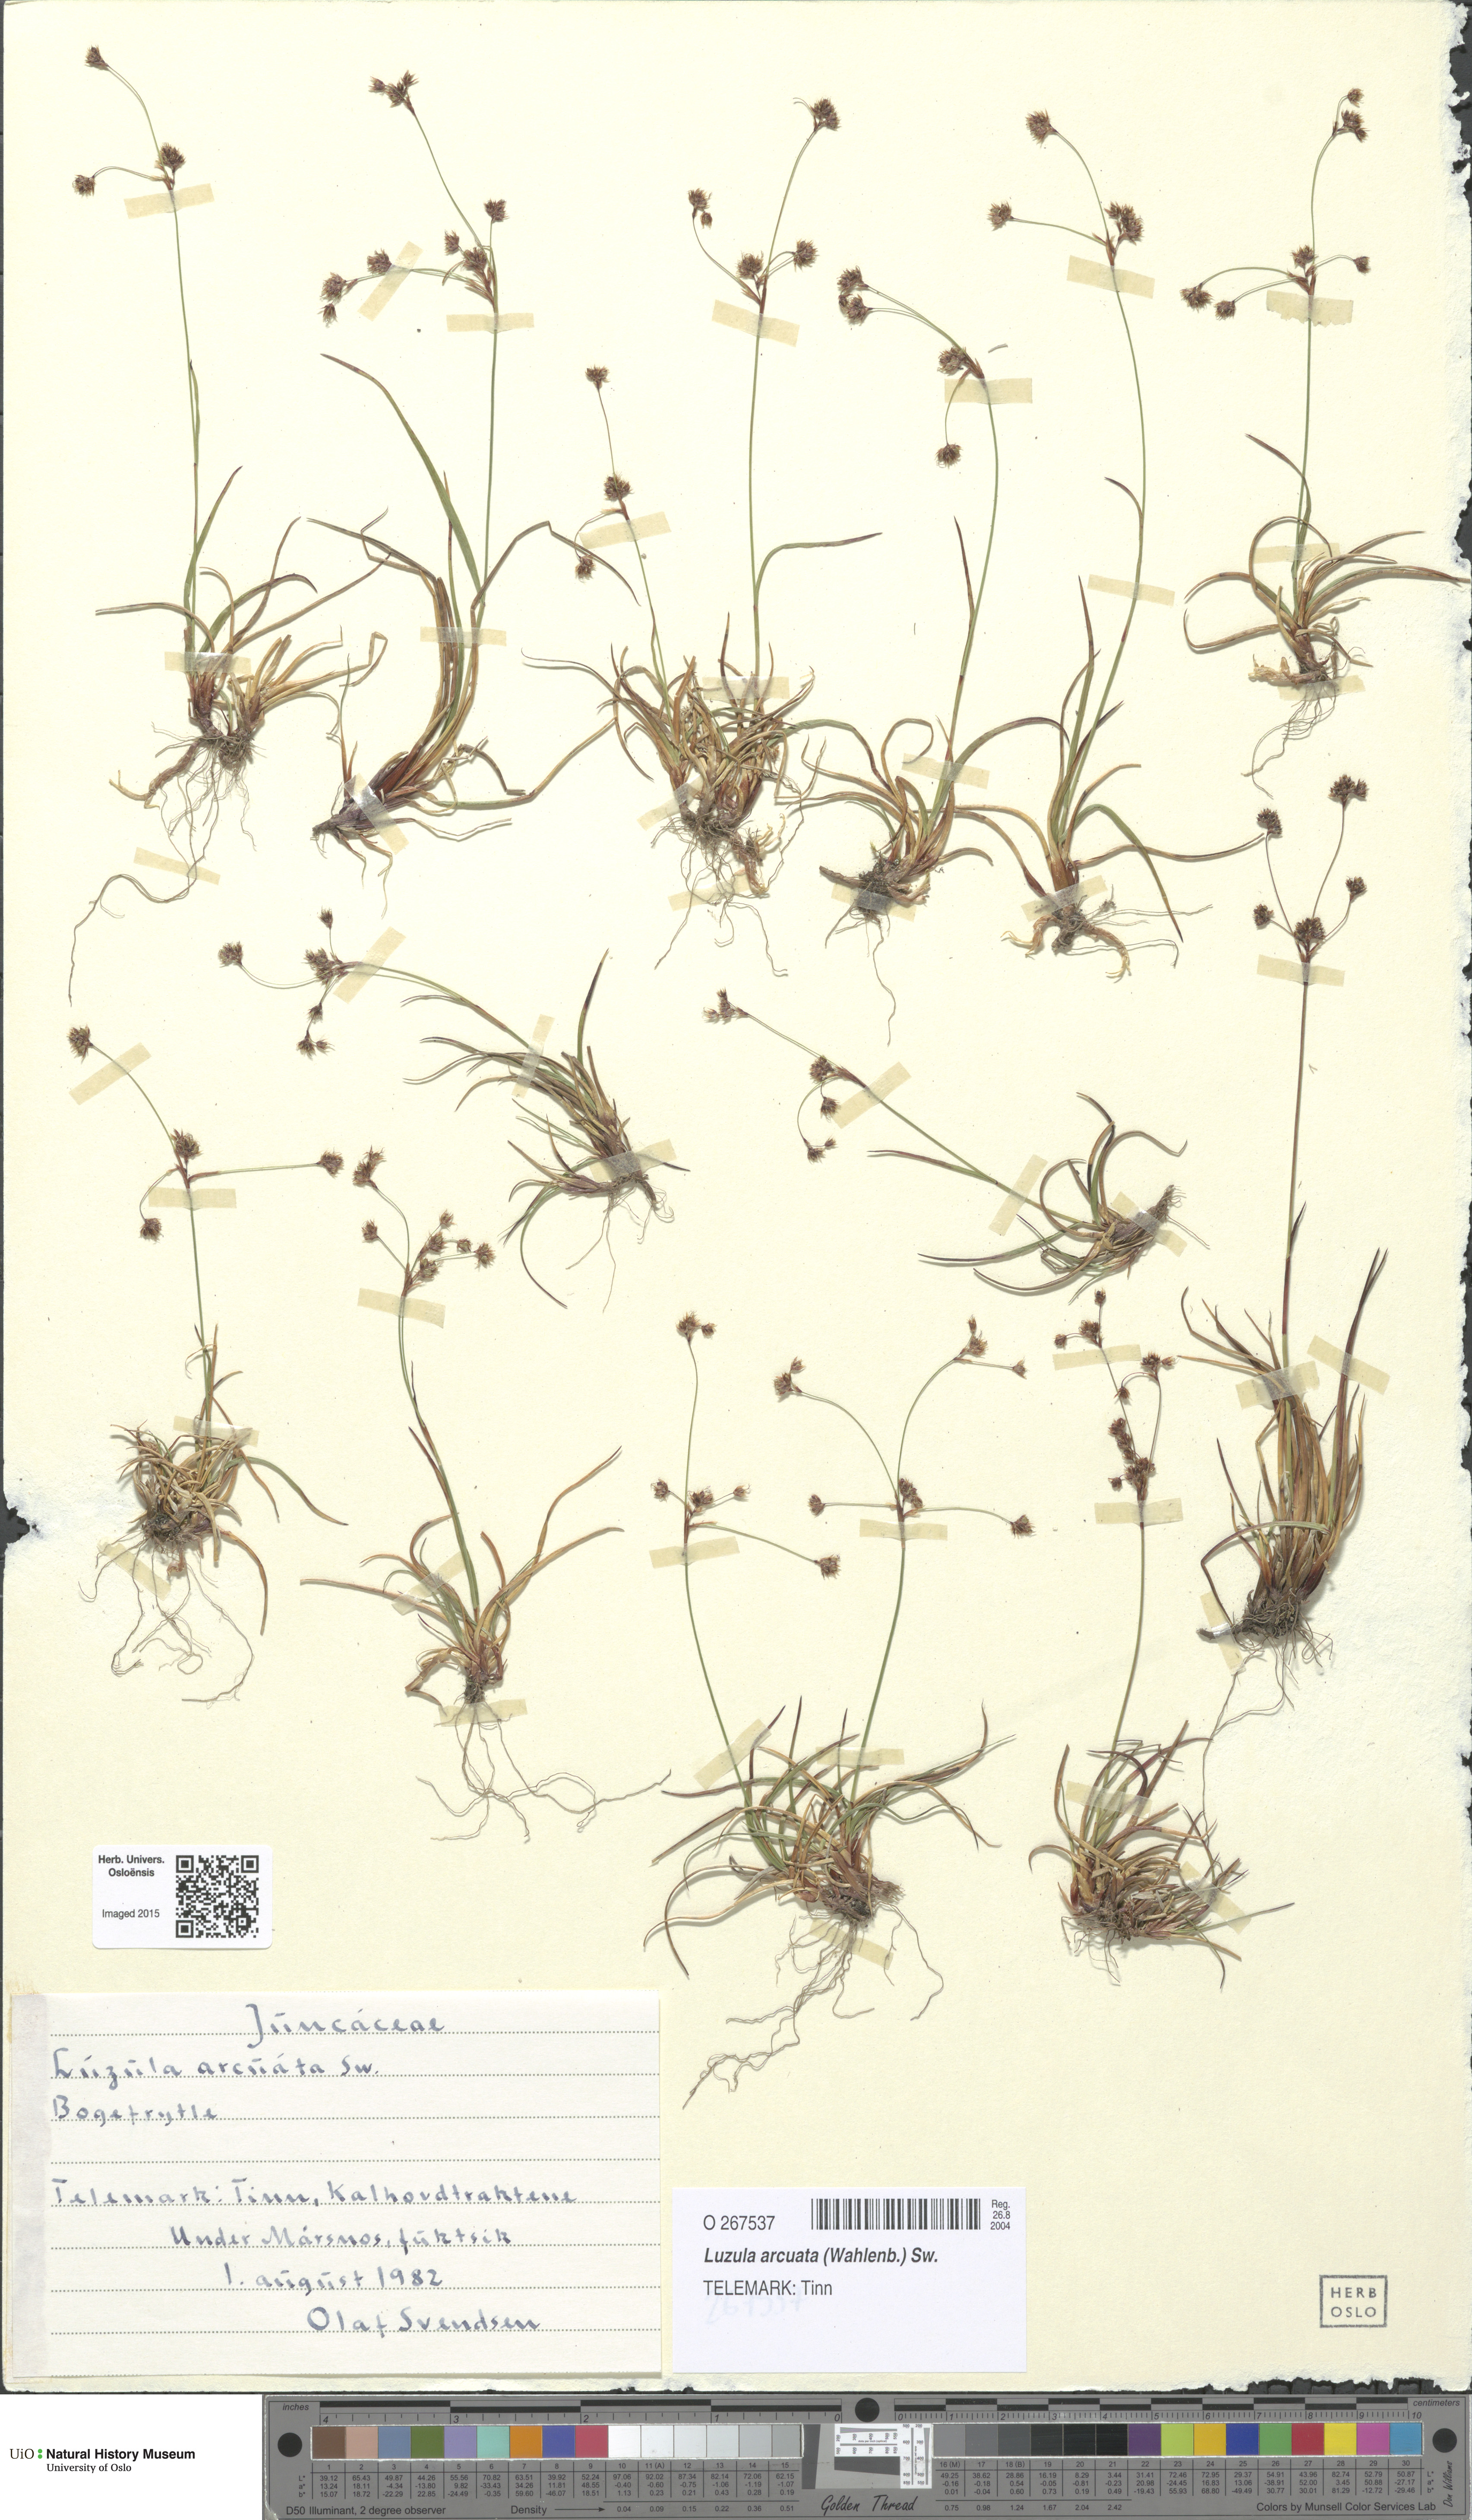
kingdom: Plantae
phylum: Tracheophyta
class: Liliopsida
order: Poales
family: Juncaceae
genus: Luzula
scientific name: Luzula arcuata
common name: Curved wood-rush
